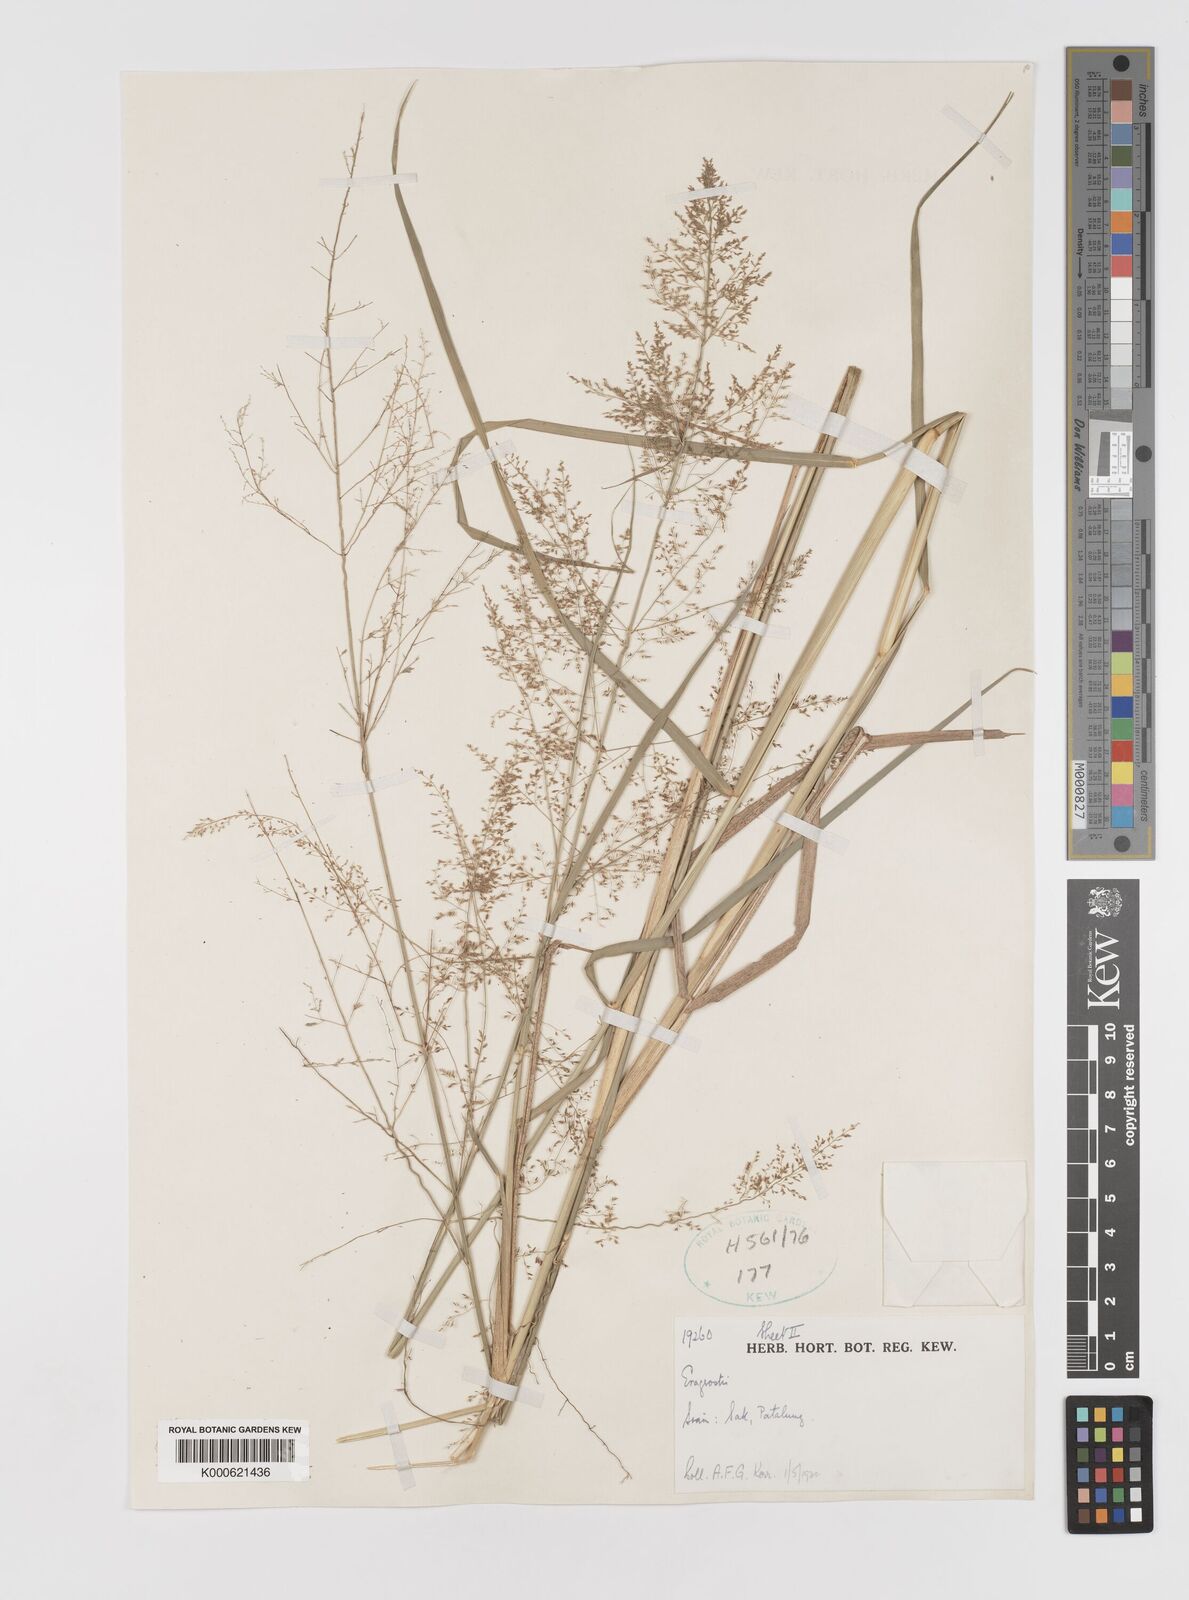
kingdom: Plantae
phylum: Tracheophyta
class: Liliopsida
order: Poales
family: Poaceae
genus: Eragrostis
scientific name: Eragrostis japonica
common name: Pond lovegrass
